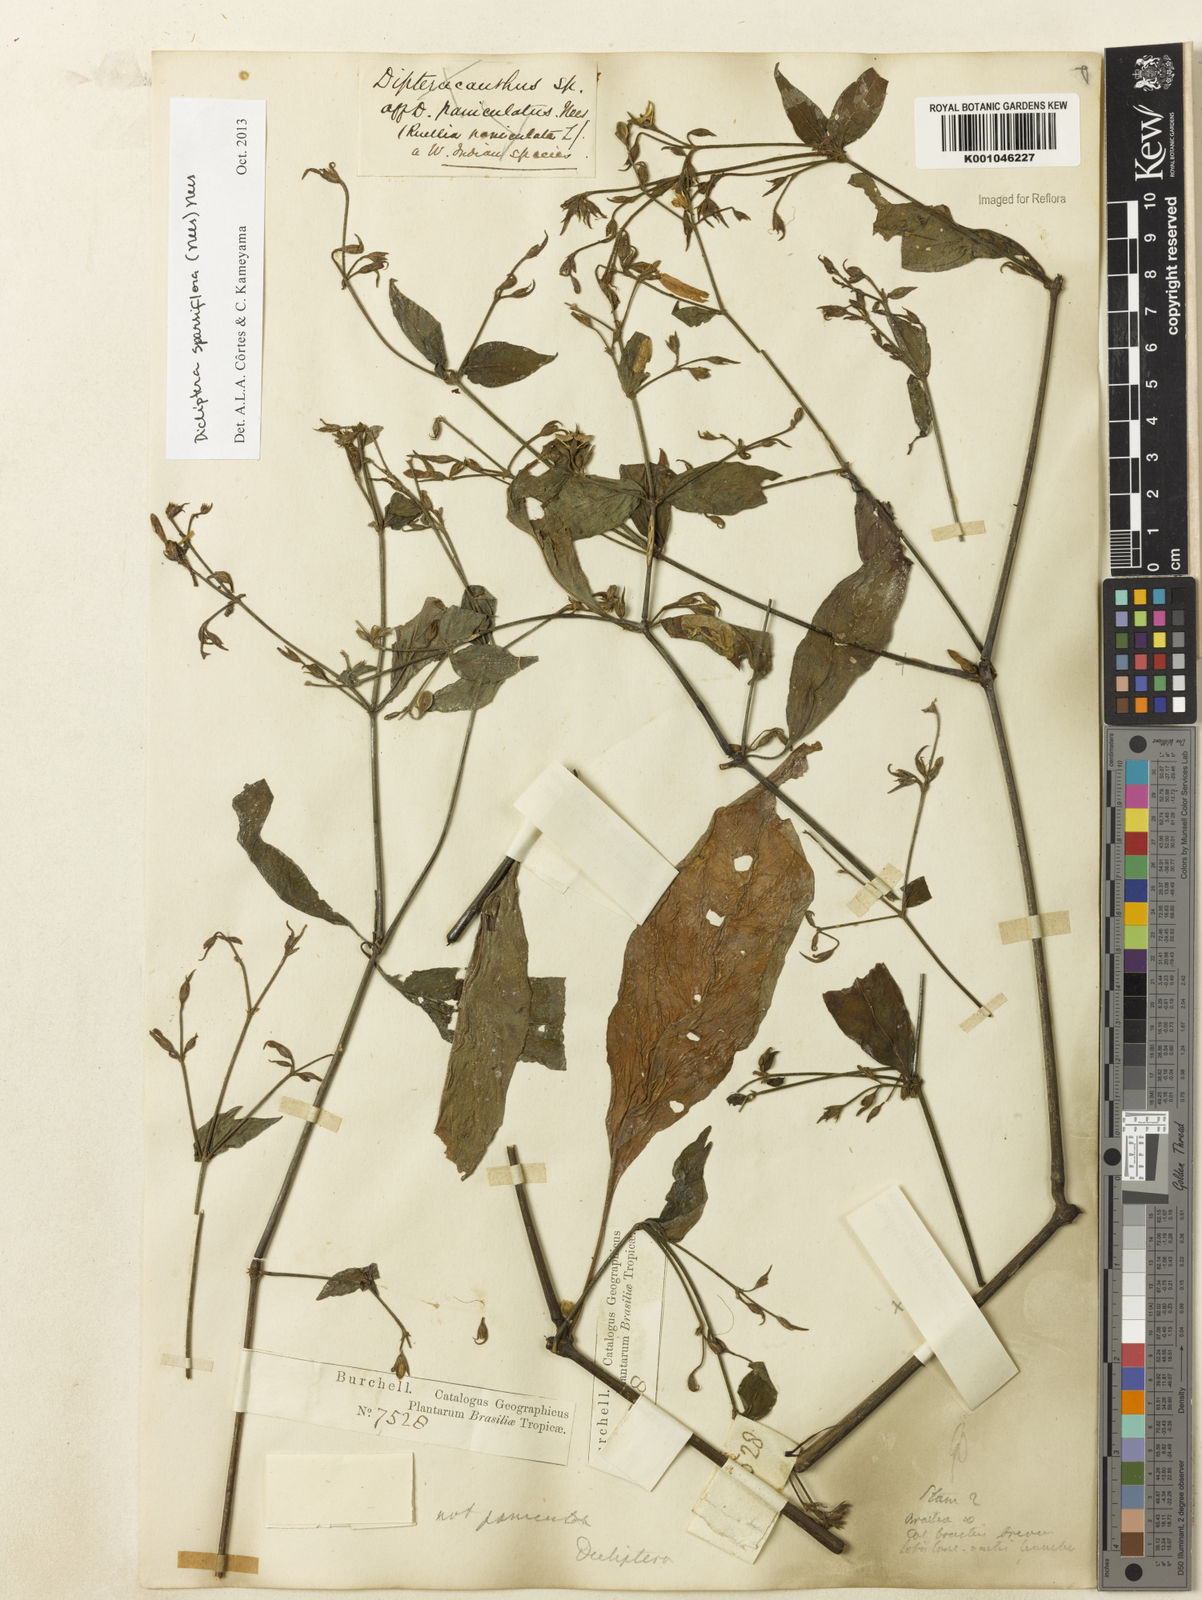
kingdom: Plantae
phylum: Tracheophyta
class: Magnoliopsida
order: Lamiales
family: Acanthaceae
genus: Dicliptera
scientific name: Dicliptera sparsiflora
